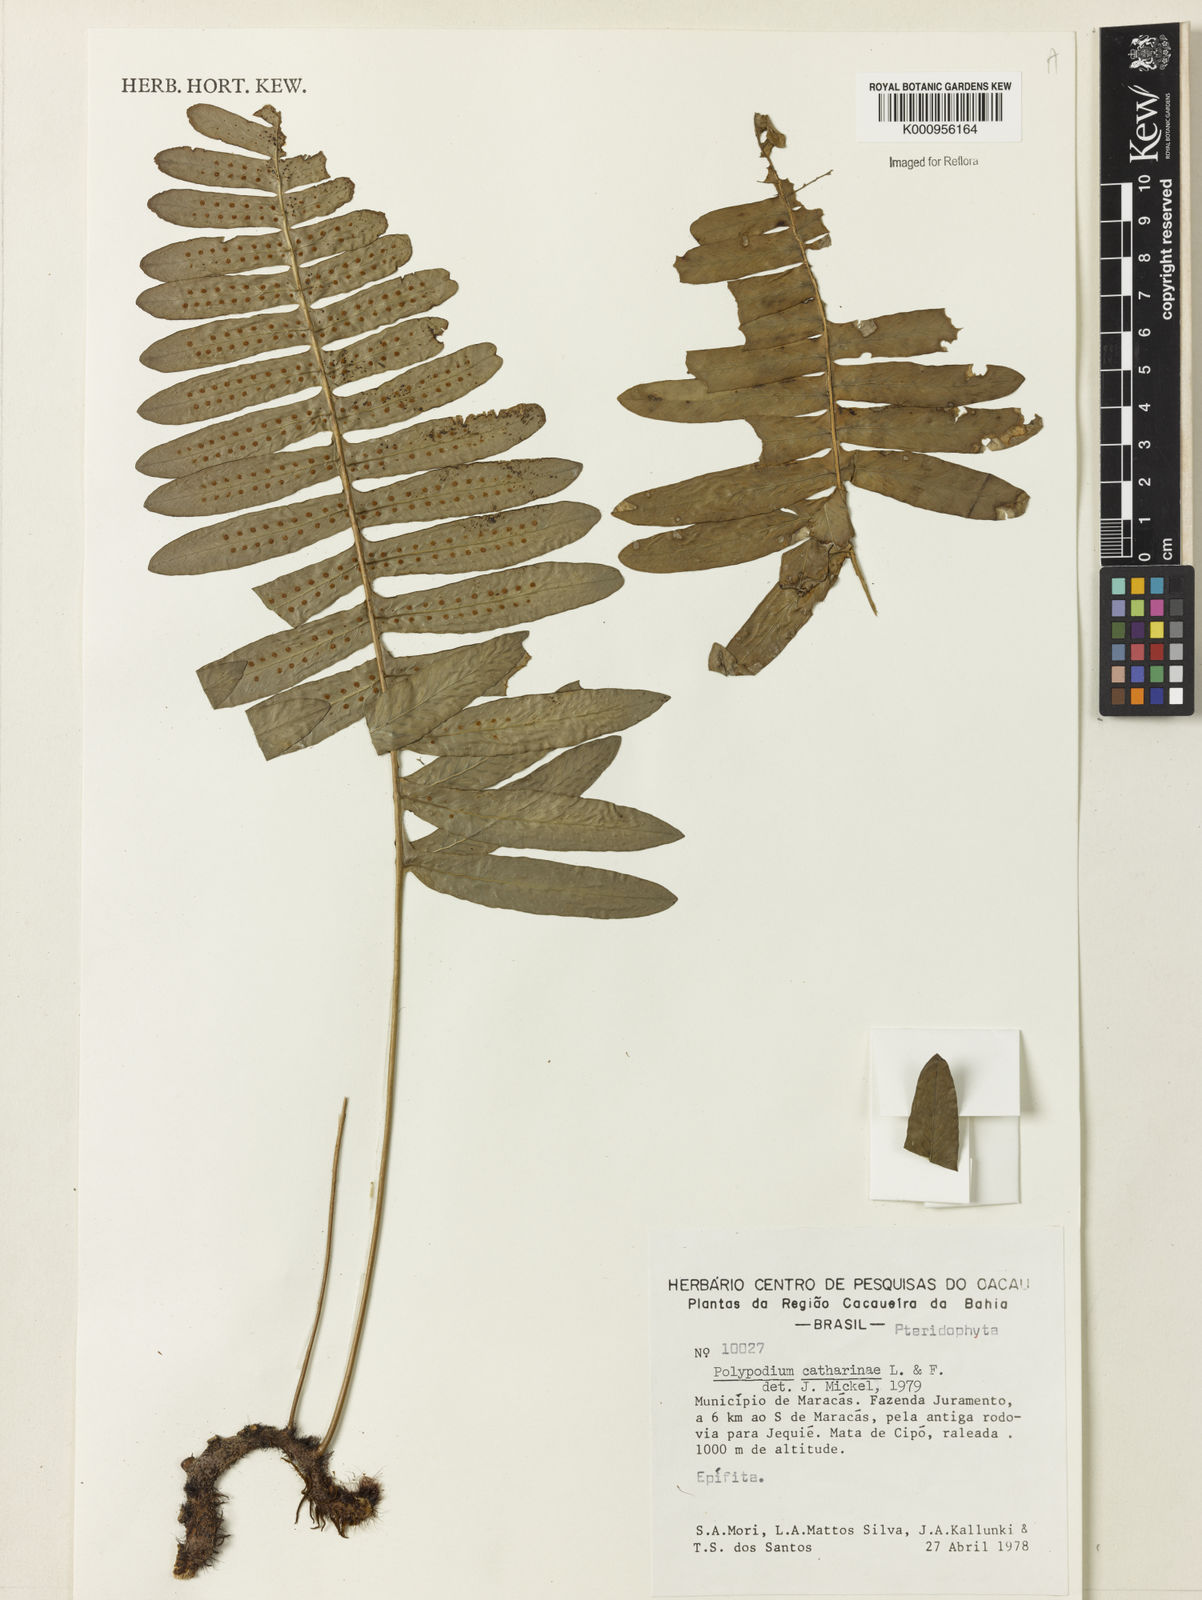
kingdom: Plantae
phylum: Tracheophyta
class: Polypodiopsida
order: Polypodiales
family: Polypodiaceae
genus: Serpocaulon
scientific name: Serpocaulon catharinae
